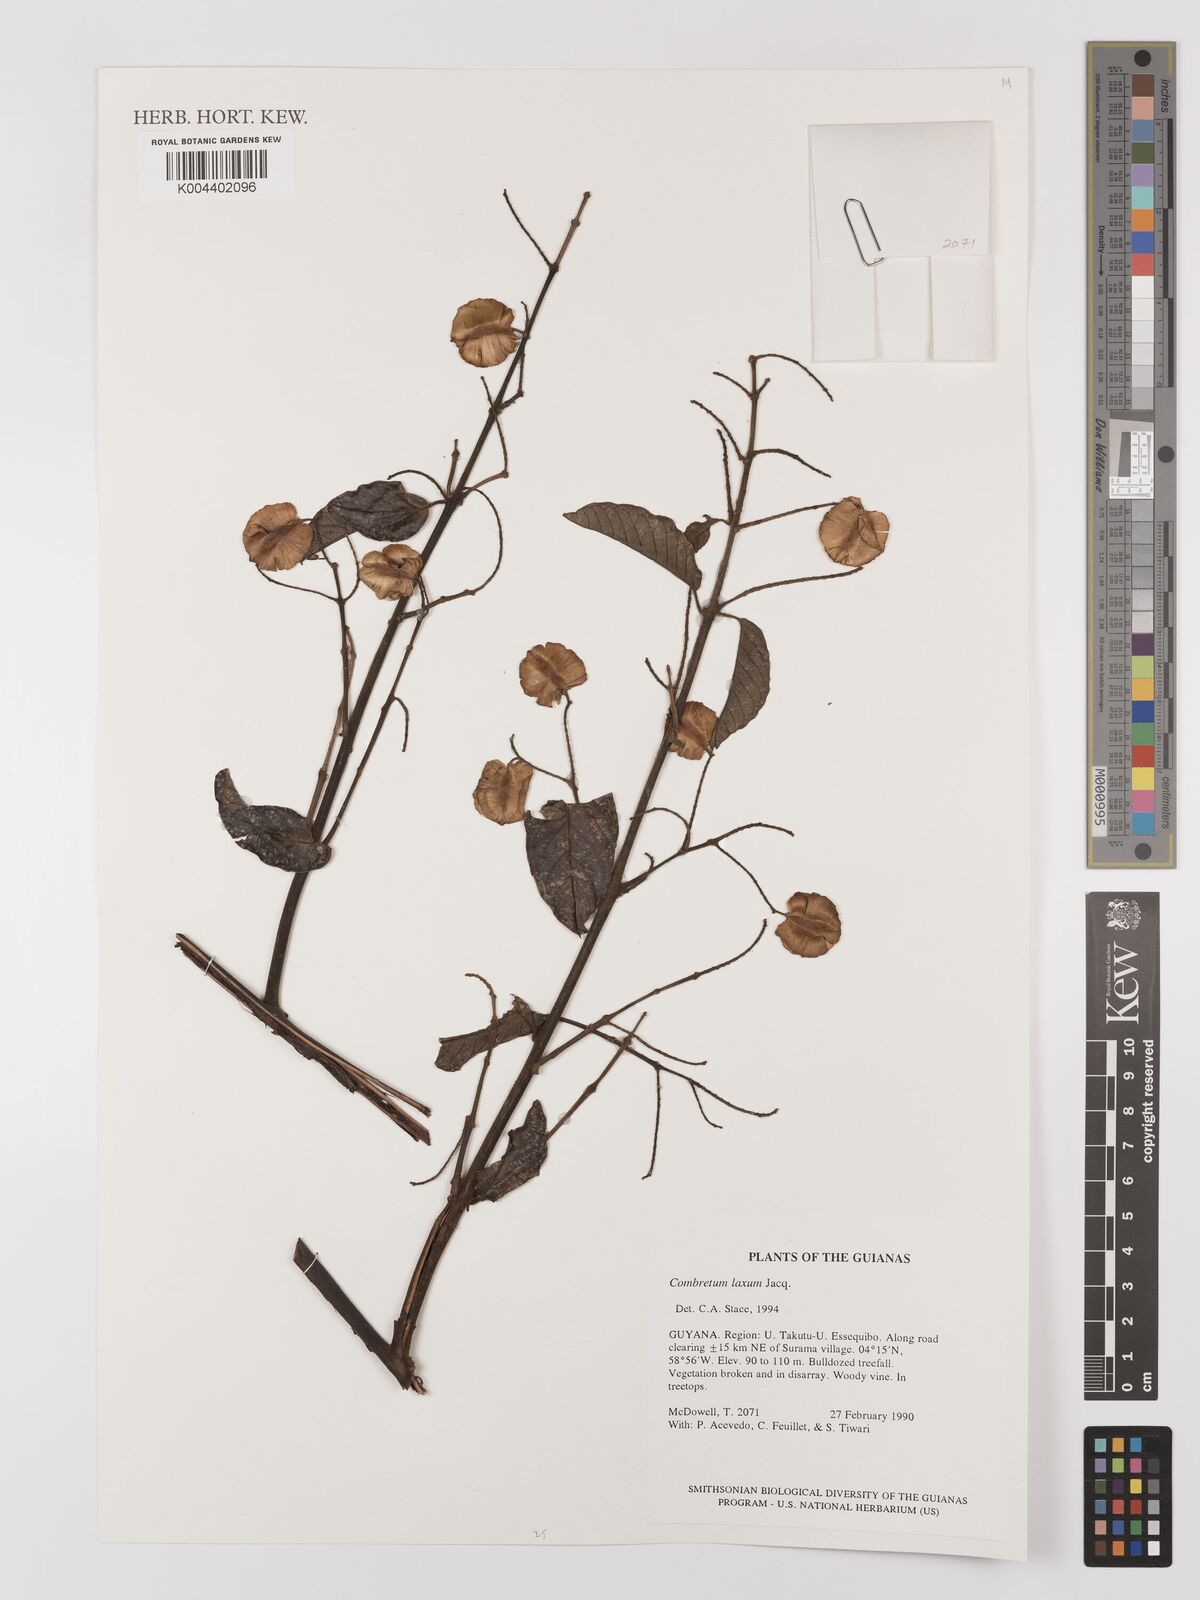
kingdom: Plantae
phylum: Tracheophyta
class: Magnoliopsida
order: Myrtales
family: Combretaceae
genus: Combretum
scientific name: Combretum
